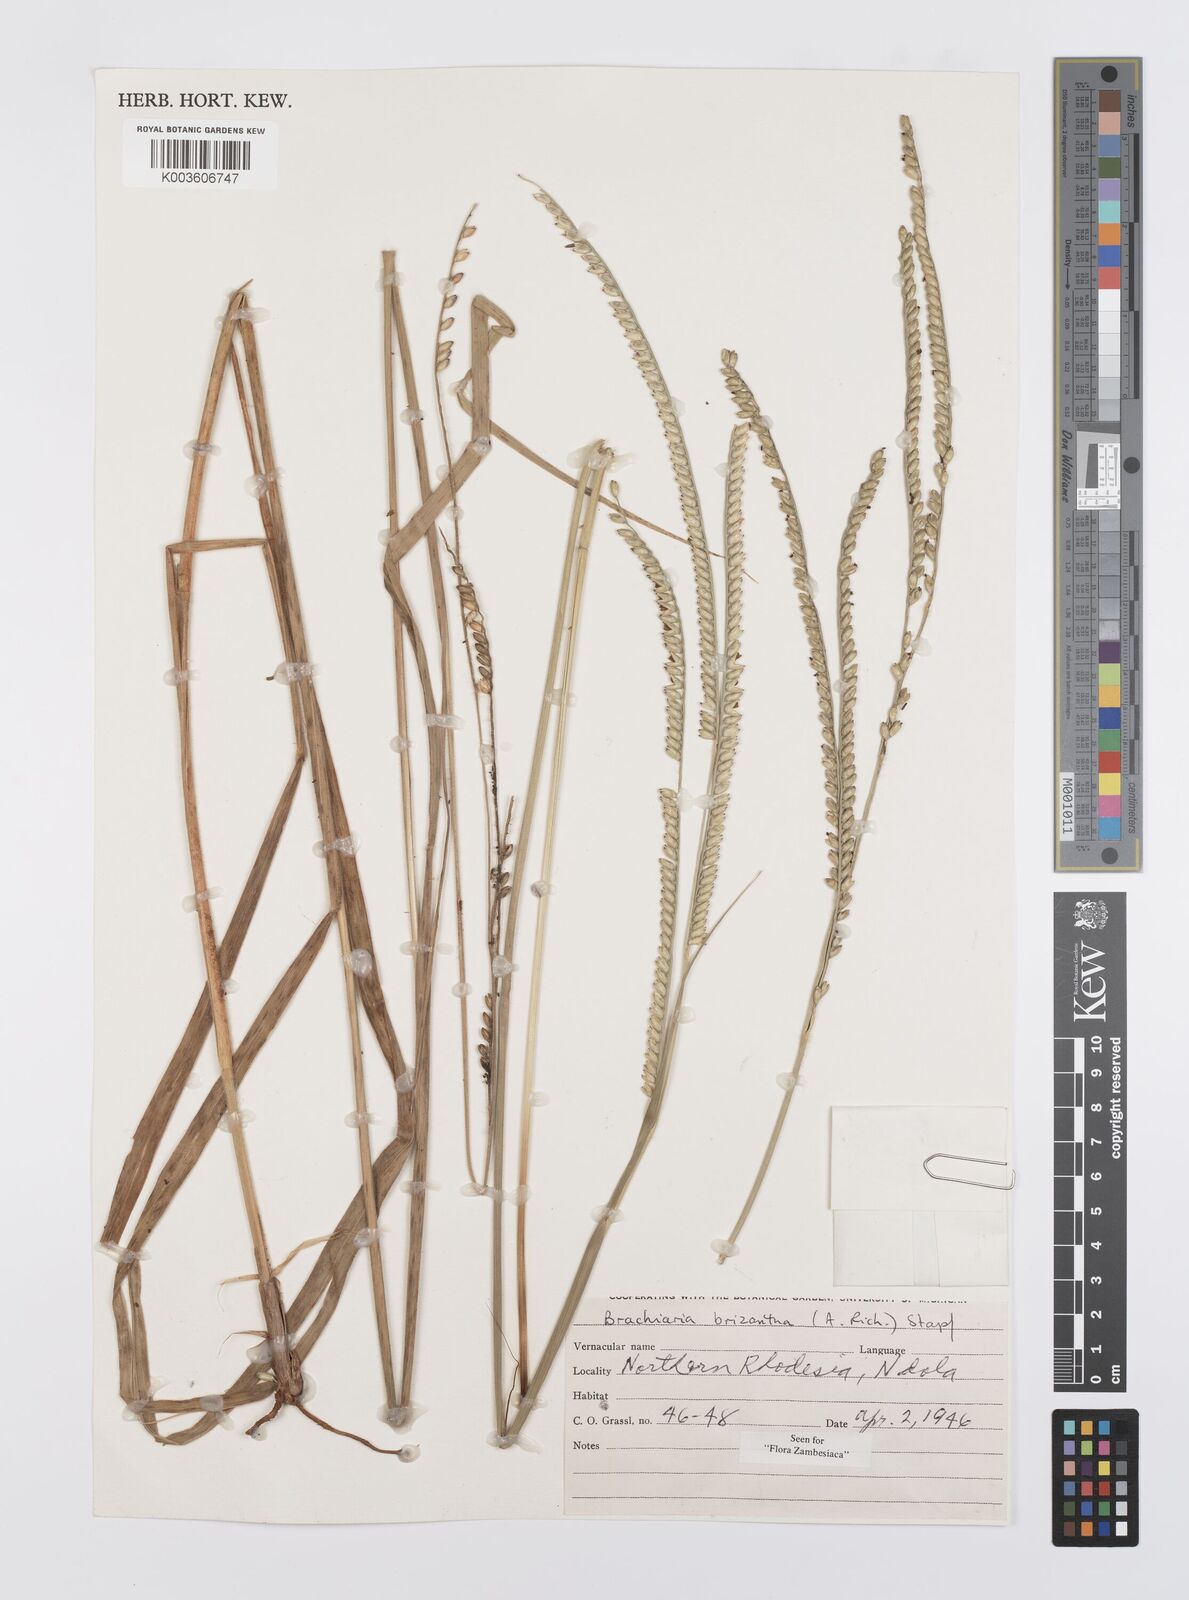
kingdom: Plantae
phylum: Tracheophyta
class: Liliopsida
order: Poales
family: Poaceae
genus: Urochloa
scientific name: Urochloa brizantha
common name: Palisade signalgrass
